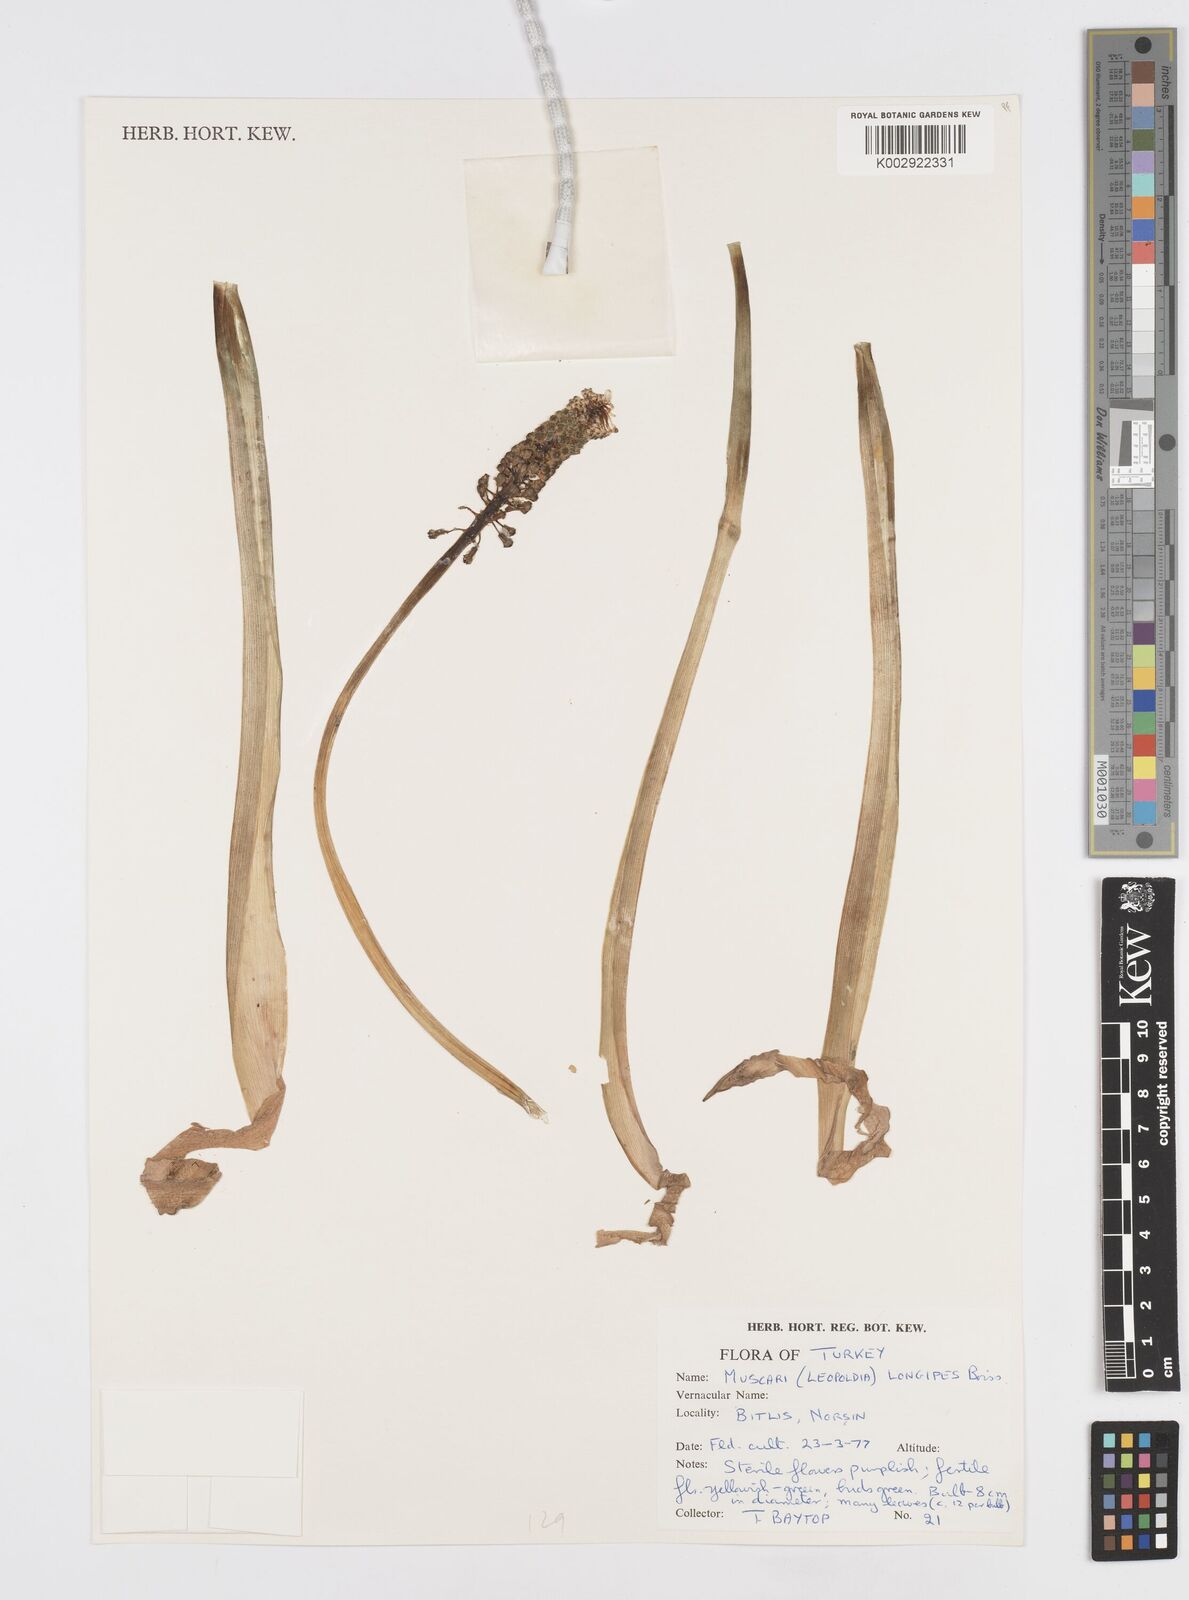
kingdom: Plantae
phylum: Tracheophyta
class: Liliopsida
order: Asparagales
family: Asparagaceae
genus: Muscari
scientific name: Muscari longipes
